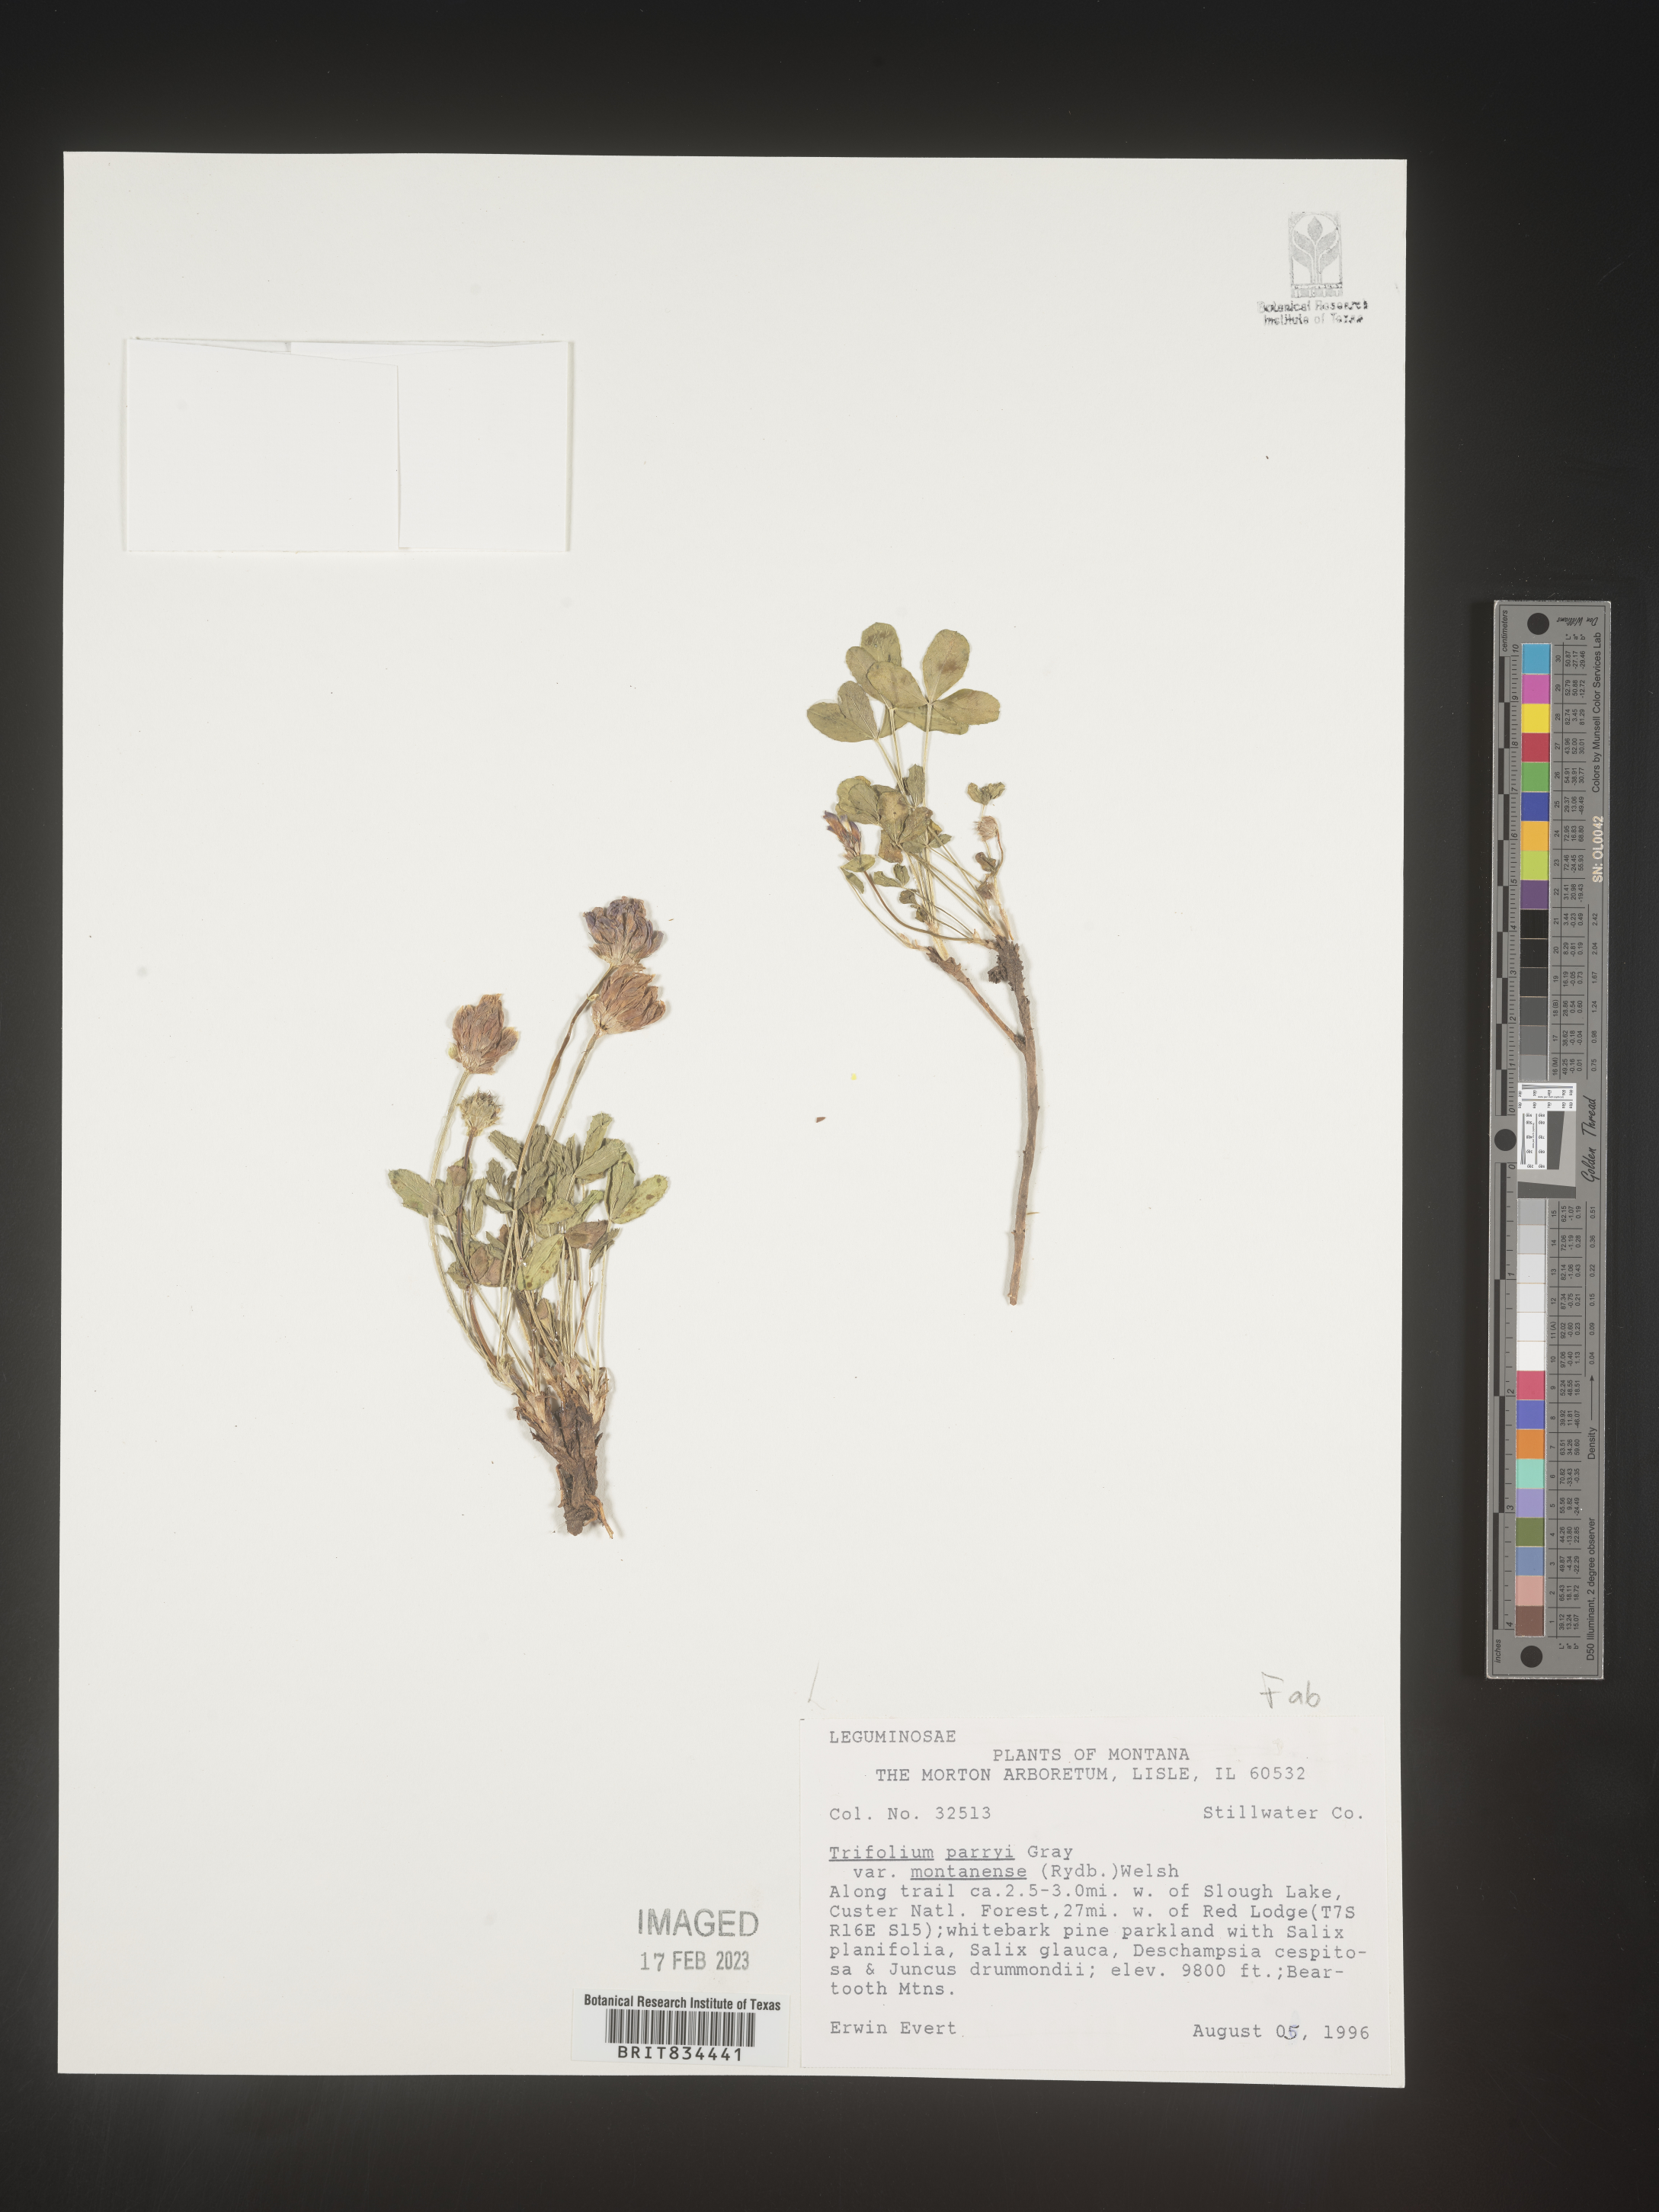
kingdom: Plantae
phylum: Tracheophyta
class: Magnoliopsida
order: Fabales
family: Fabaceae
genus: Trifolium
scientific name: Trifolium
